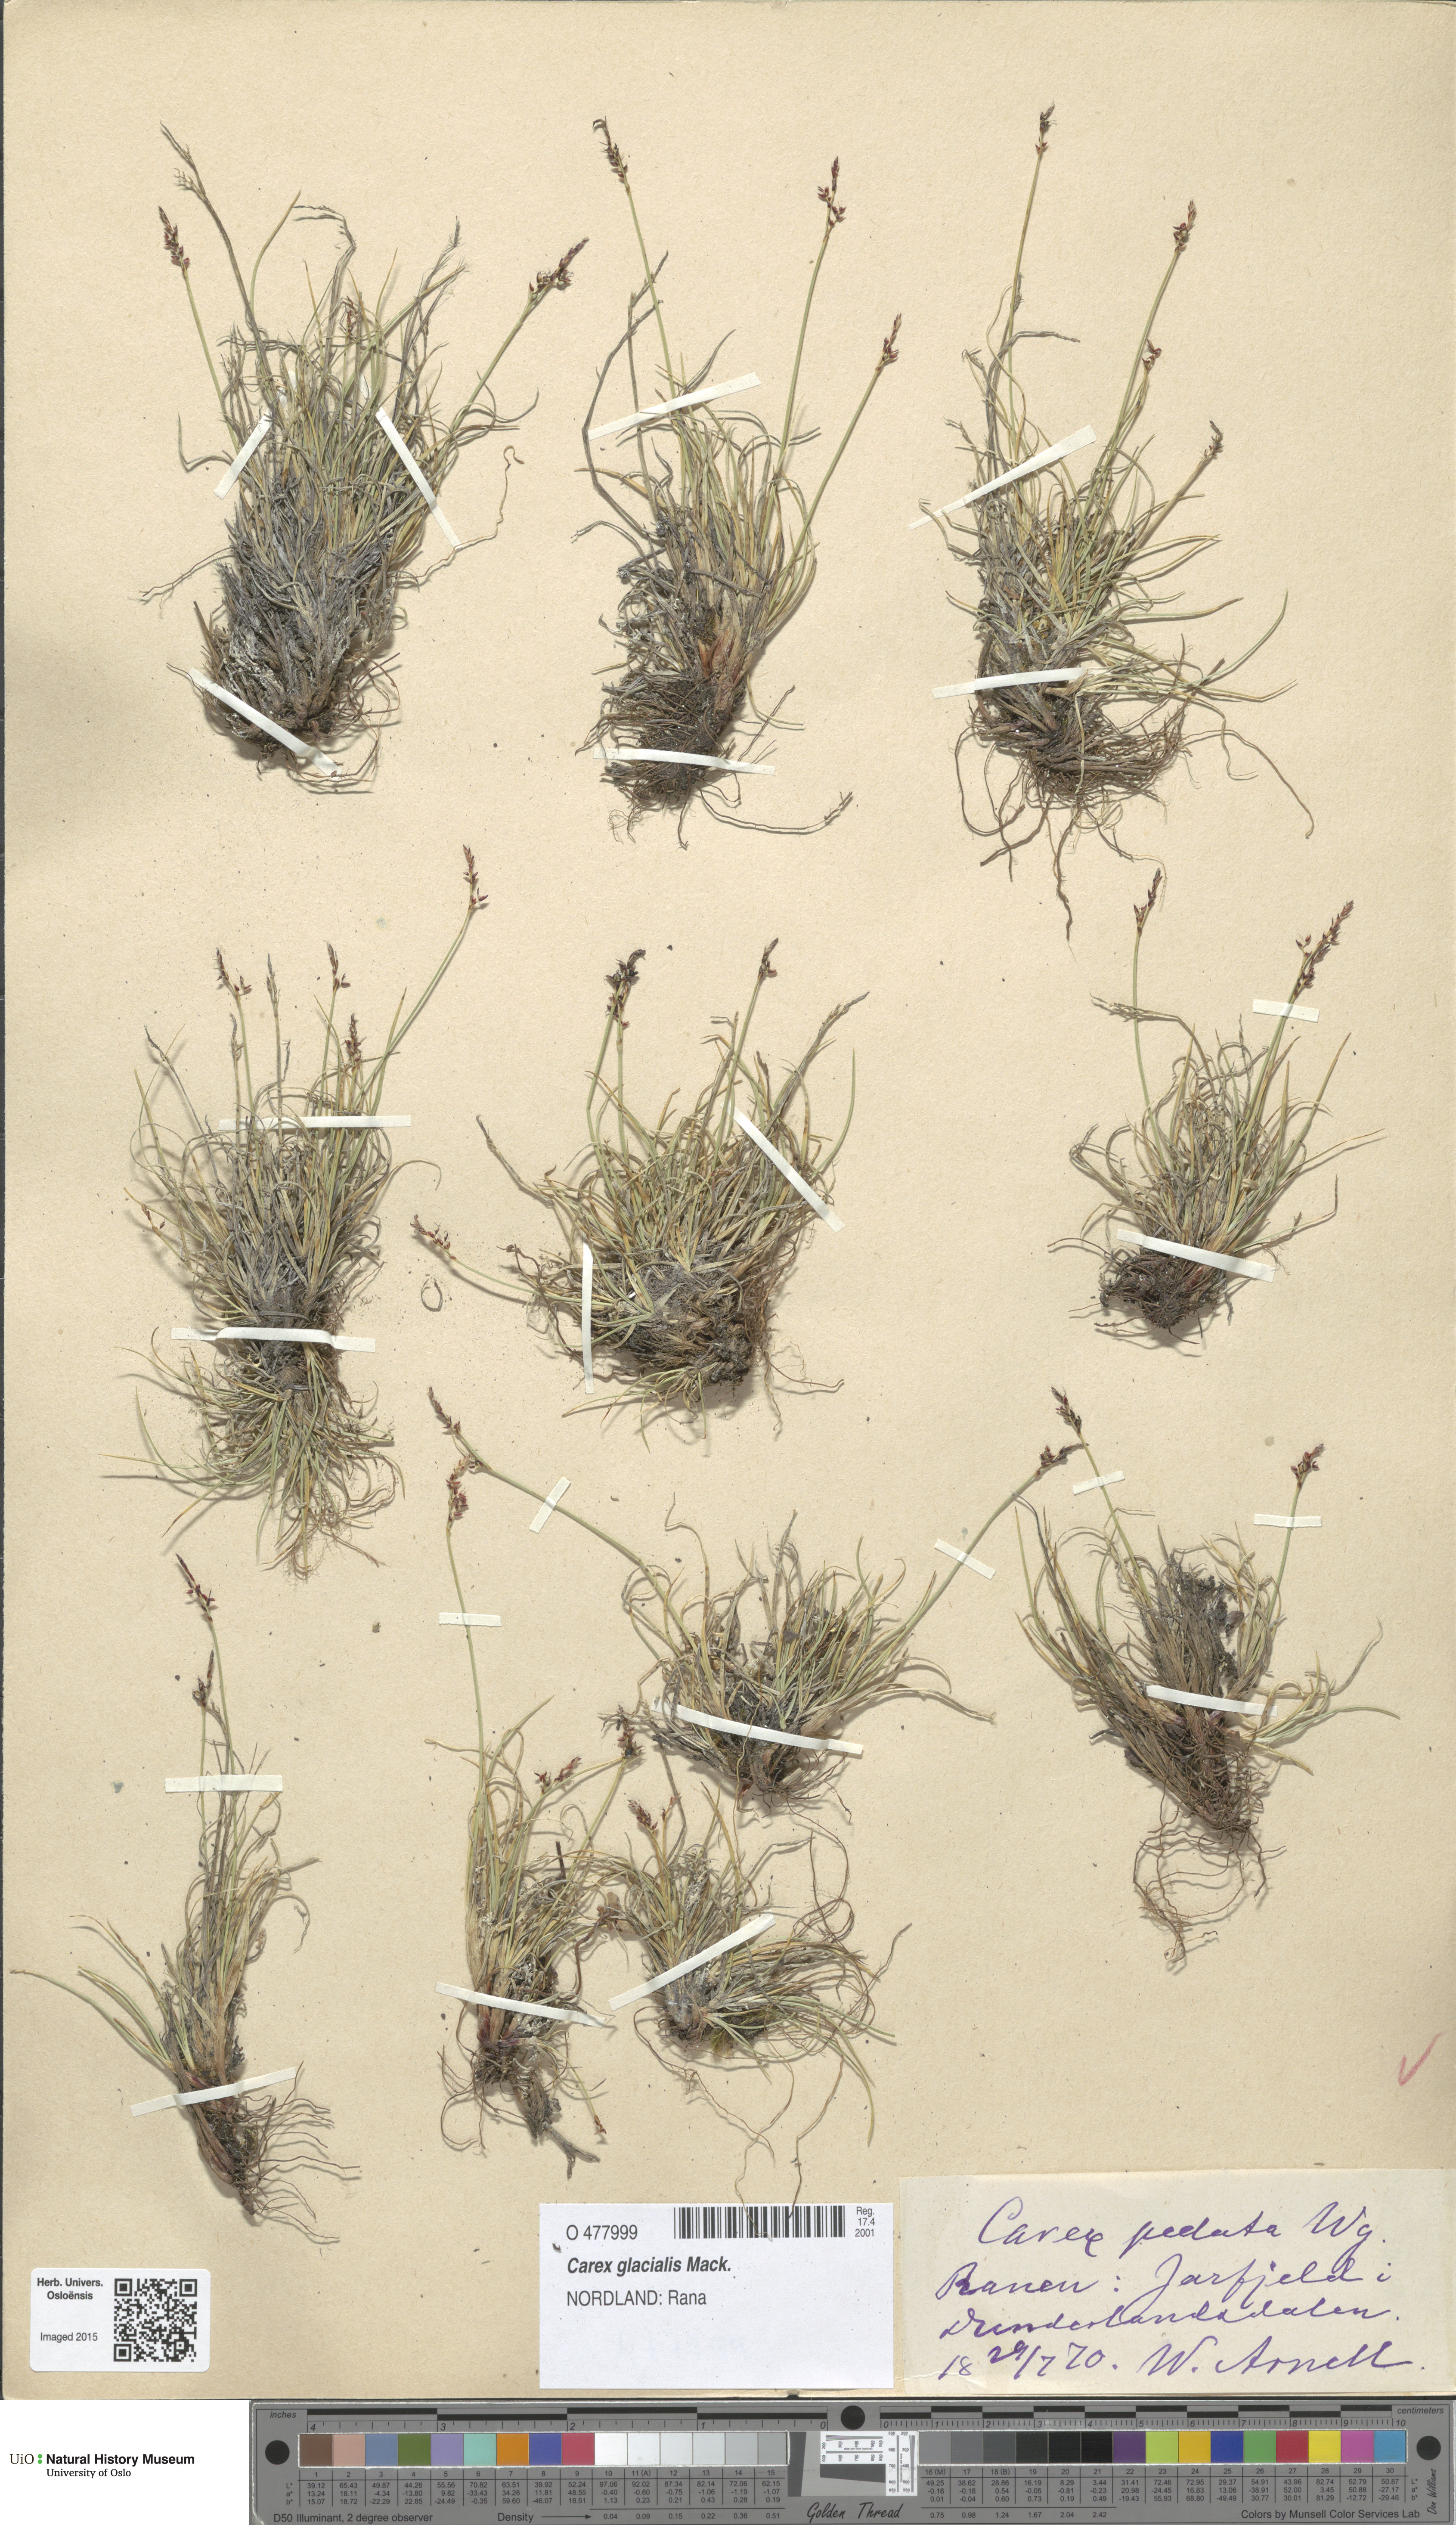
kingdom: Plantae
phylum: Tracheophyta
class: Liliopsida
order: Poales
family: Cyperaceae
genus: Carex
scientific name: Carex glacialis
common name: Newfoundland sedge
